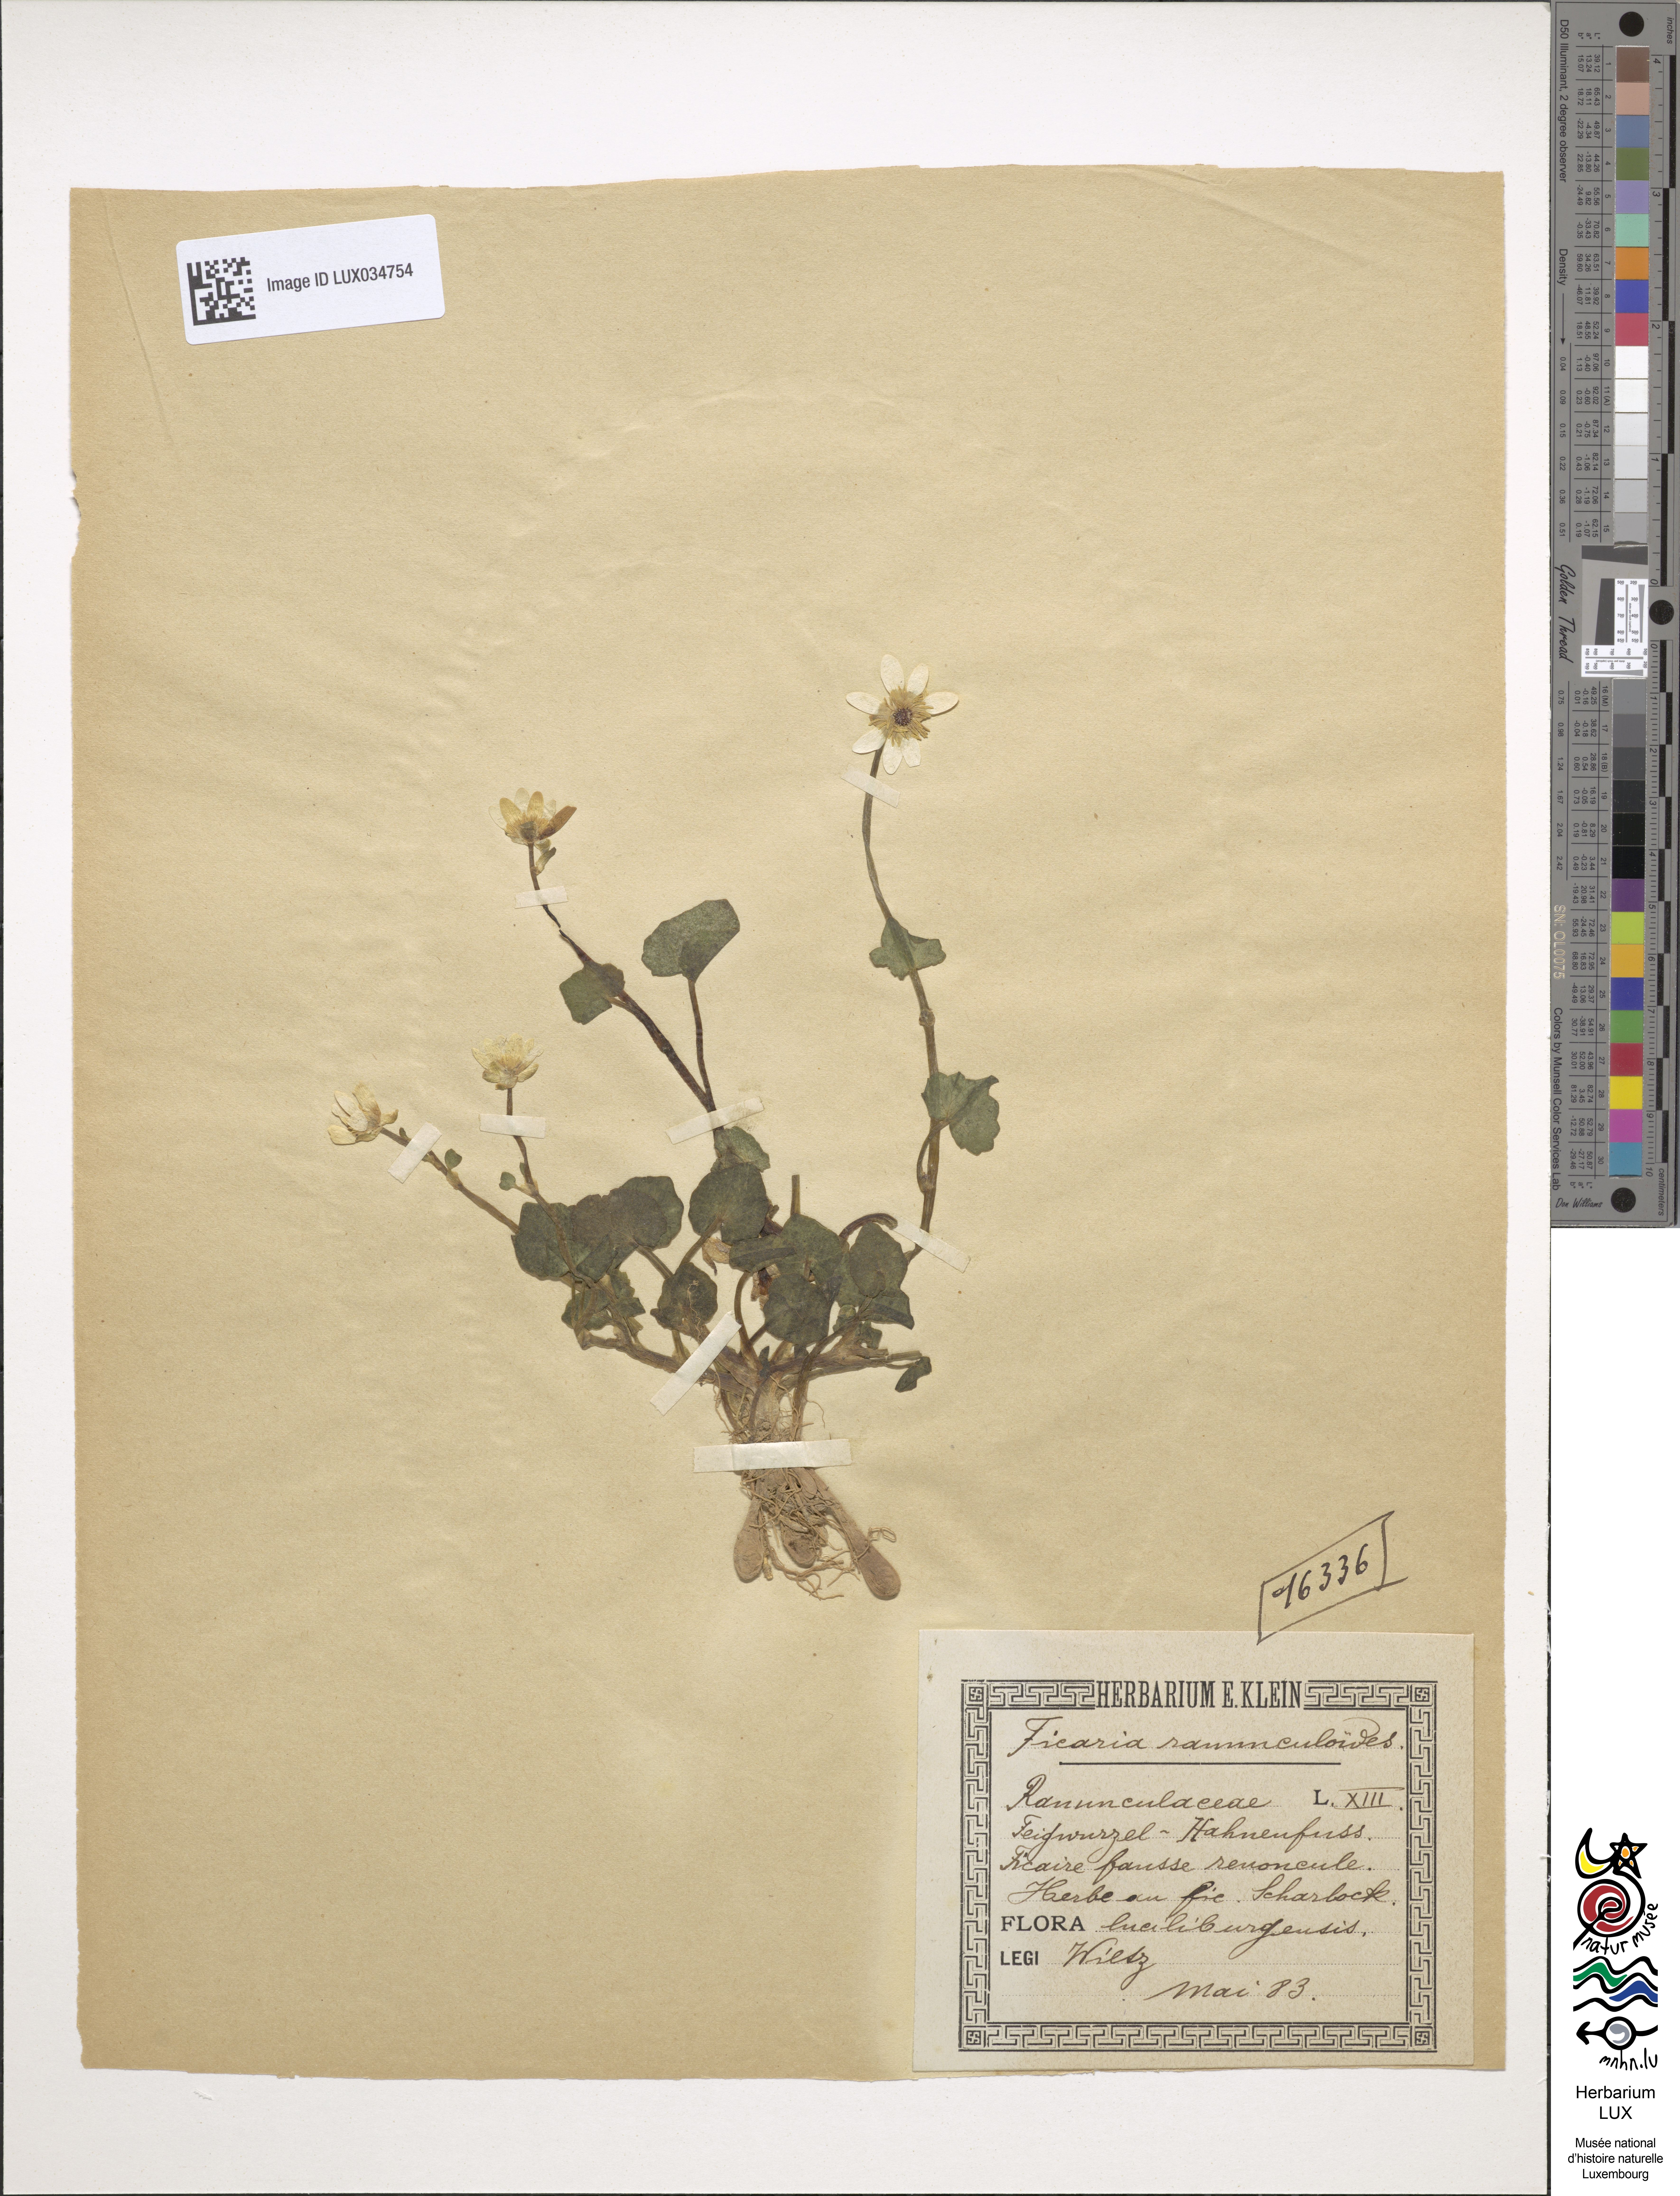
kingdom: Plantae
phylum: Tracheophyta
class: Magnoliopsida
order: Ranunculales
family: Ranunculaceae
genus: Ficaria
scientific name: Ficaria verna
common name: Lesser celandine
